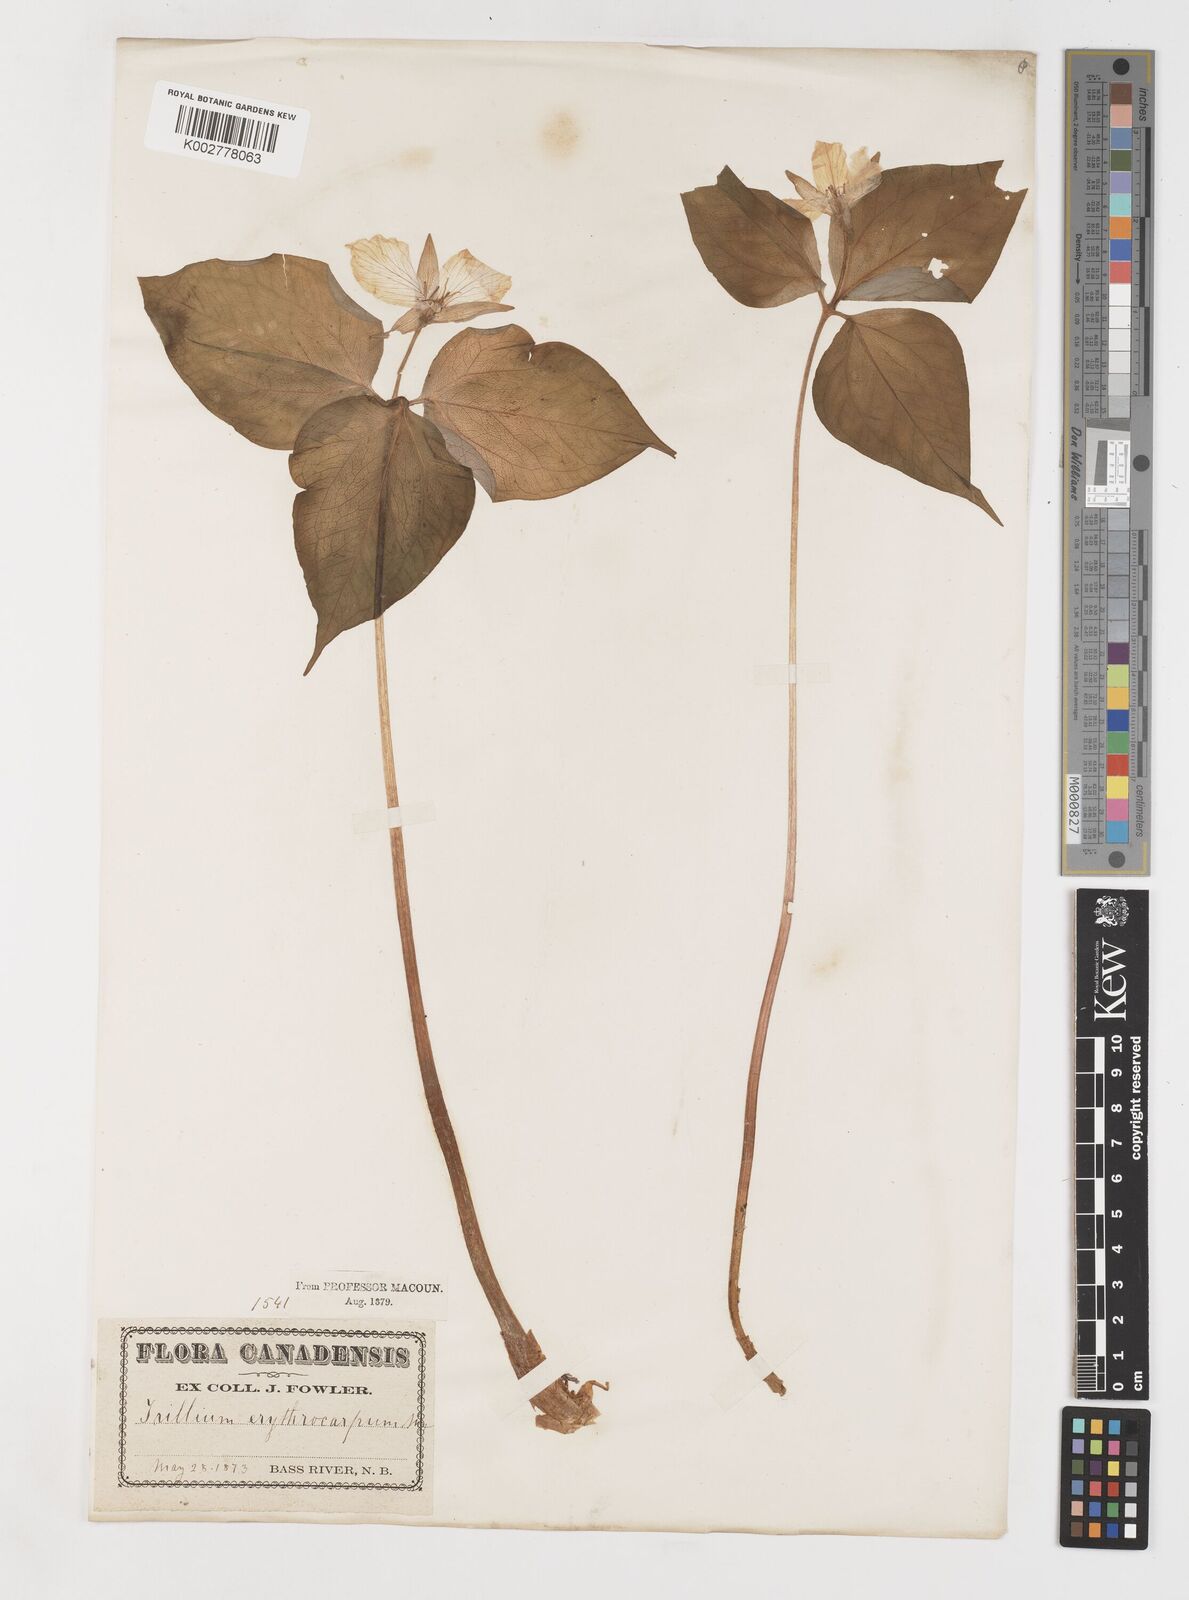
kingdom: Plantae
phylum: Tracheophyta
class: Liliopsida
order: Liliales
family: Melanthiaceae
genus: Trillium
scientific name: Trillium undulatum
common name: Paint trillium
